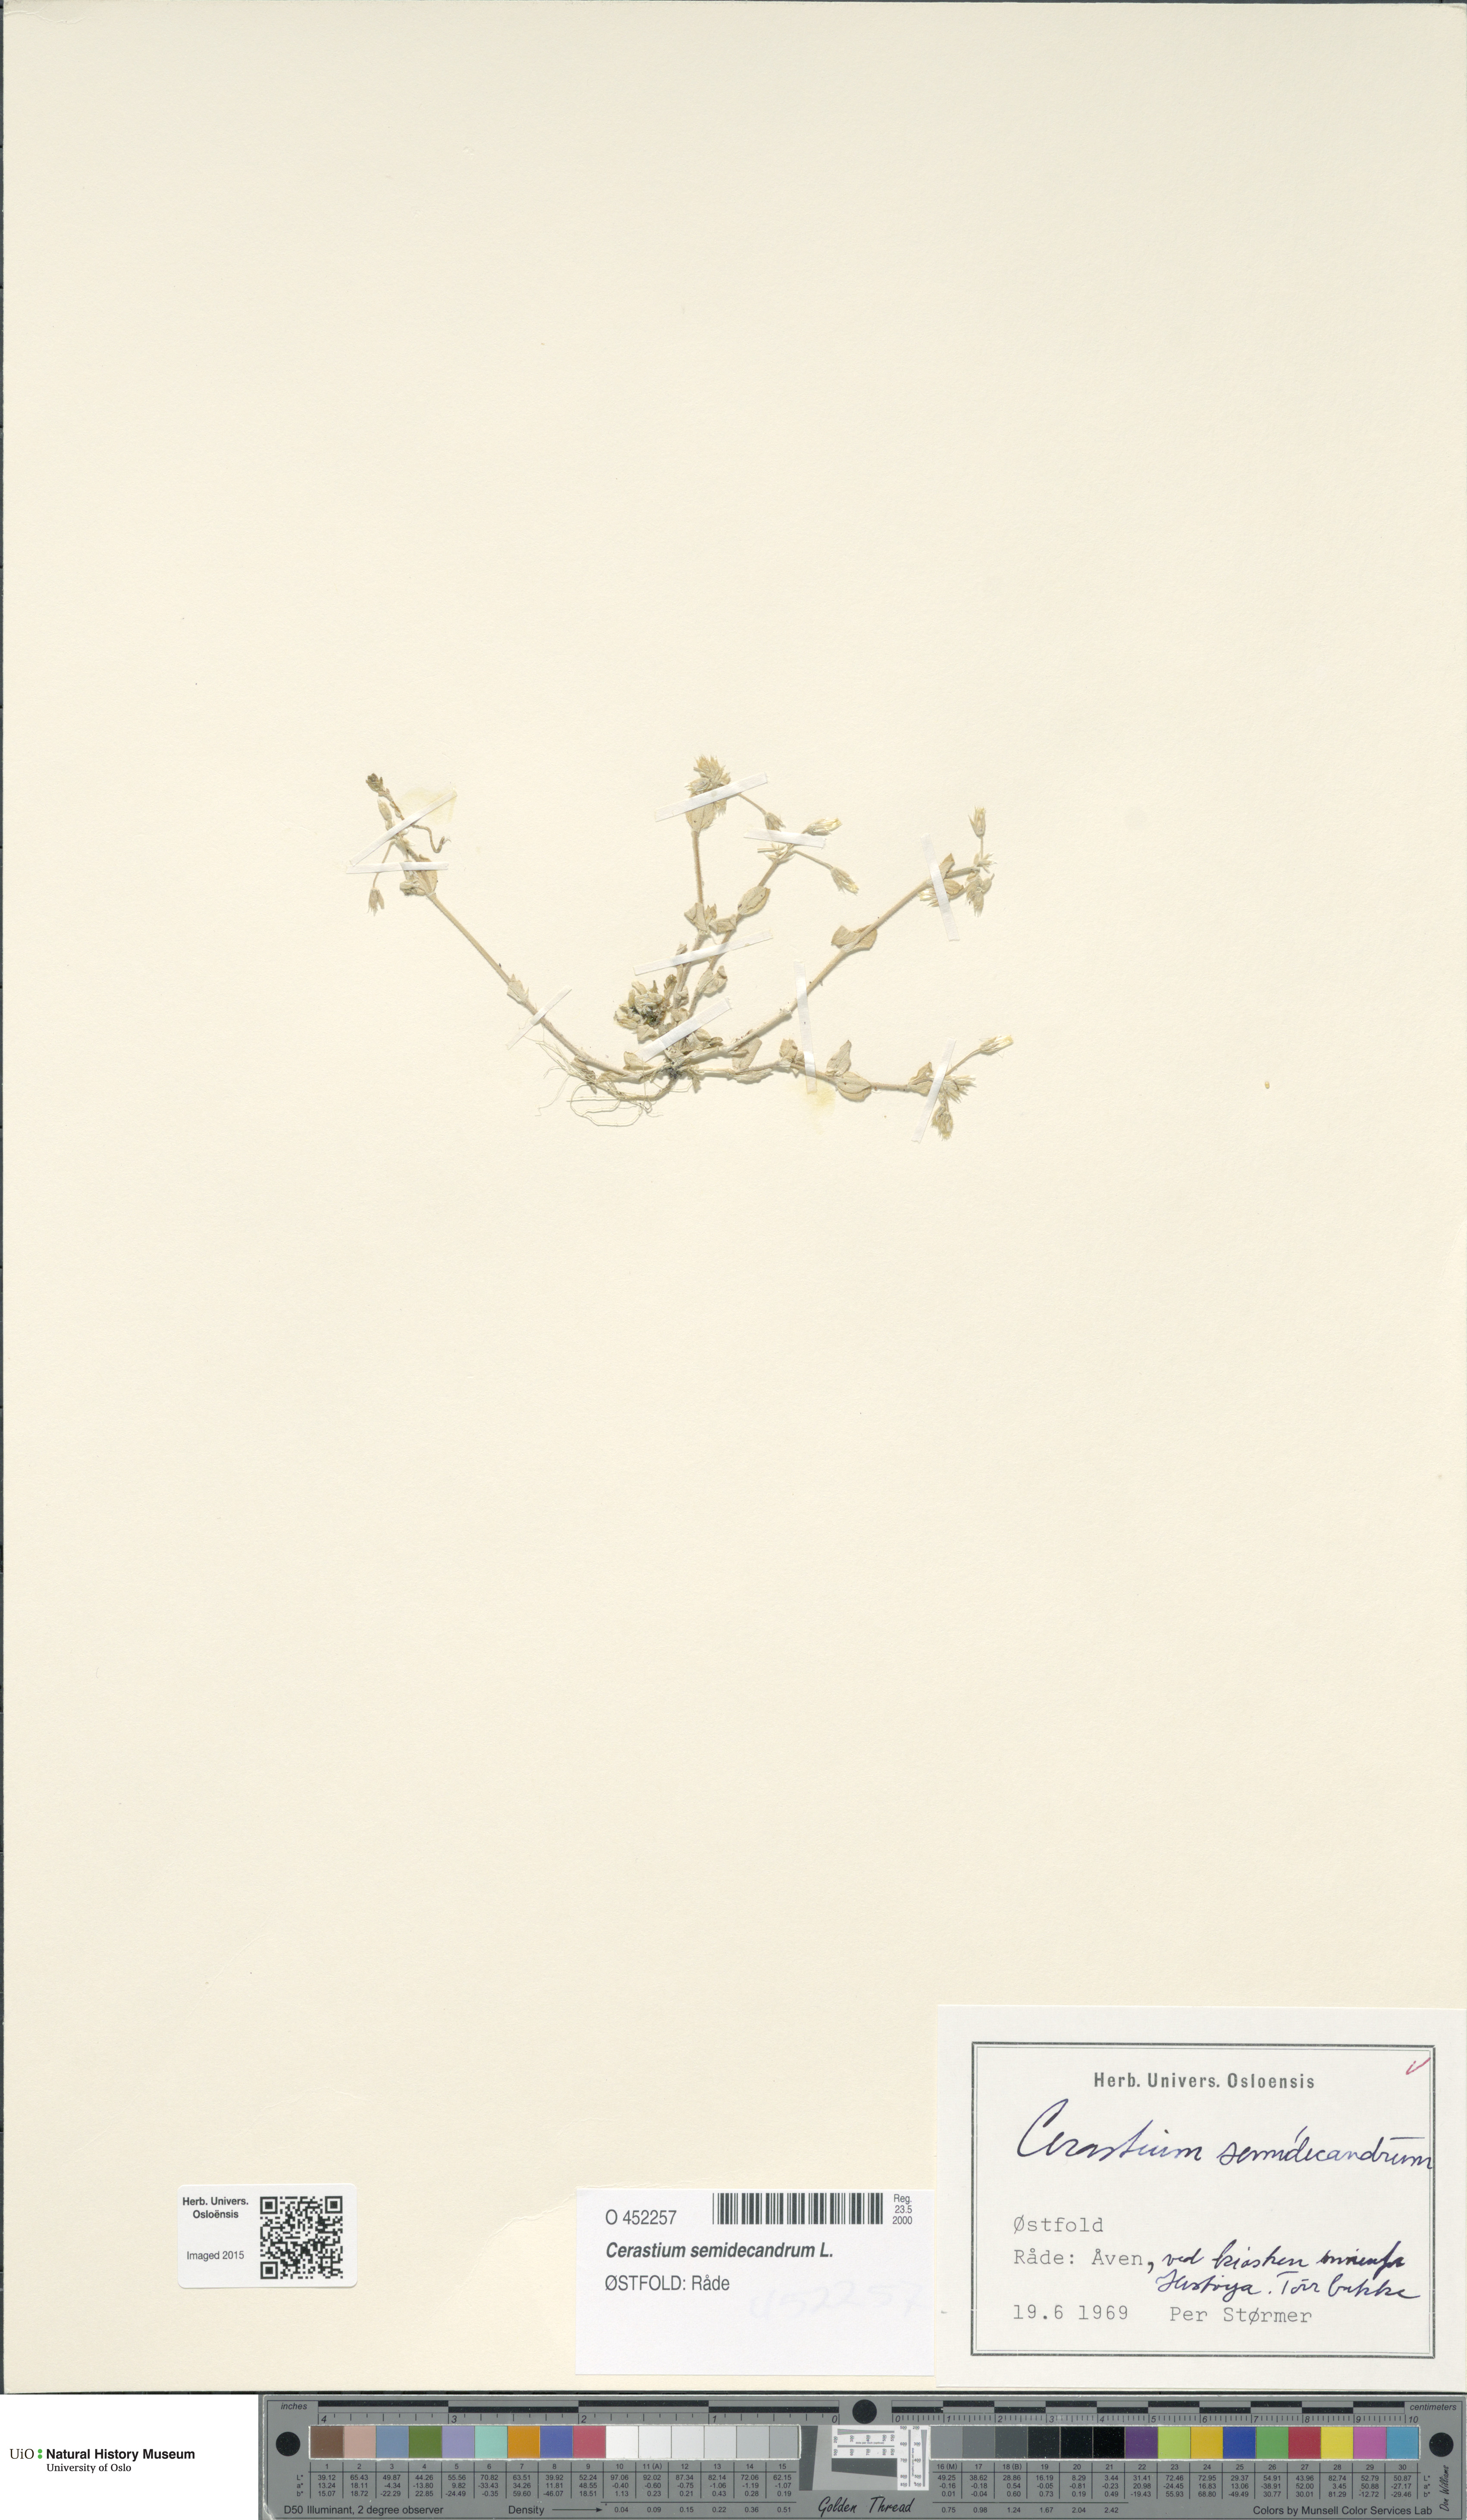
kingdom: Plantae
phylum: Tracheophyta
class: Magnoliopsida
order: Caryophyllales
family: Caryophyllaceae
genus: Cerastium
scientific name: Cerastium semidecandrum
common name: Little mouse-ear
